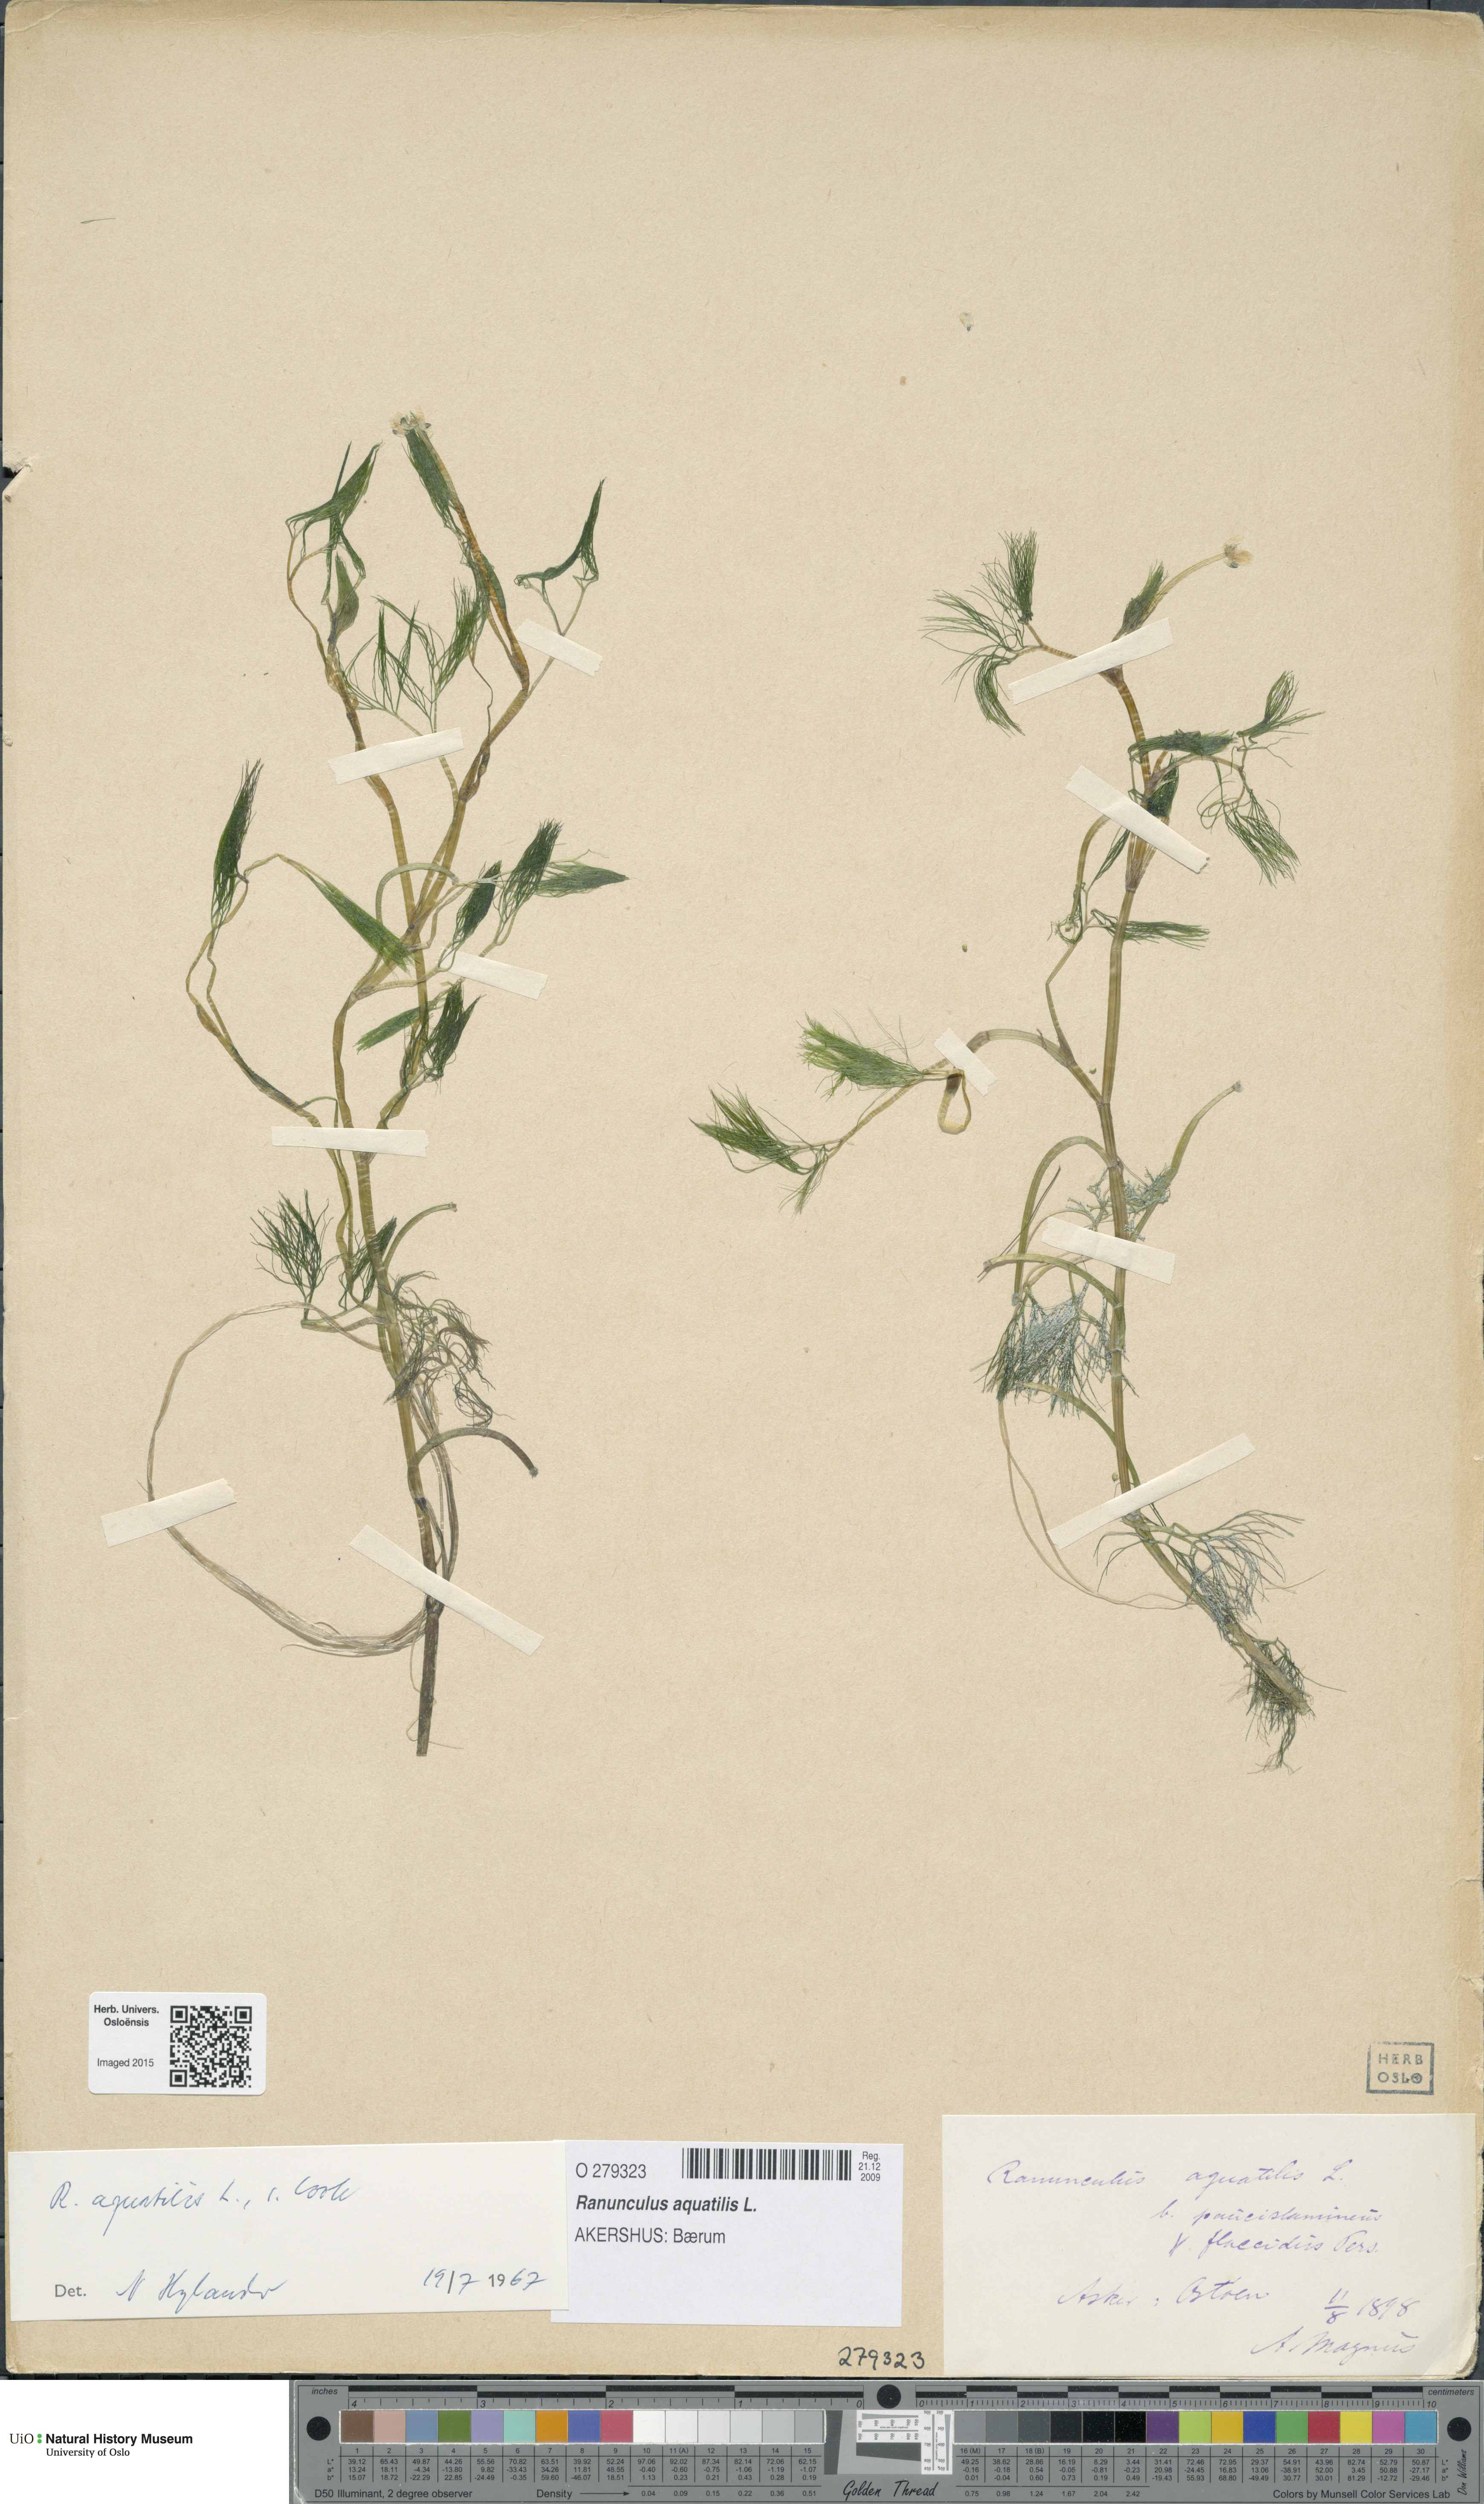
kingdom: Plantae
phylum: Tracheophyta
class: Magnoliopsida
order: Ranunculales
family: Ranunculaceae
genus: Ranunculus
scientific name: Ranunculus aquatilis
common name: Common water-crowfoot
